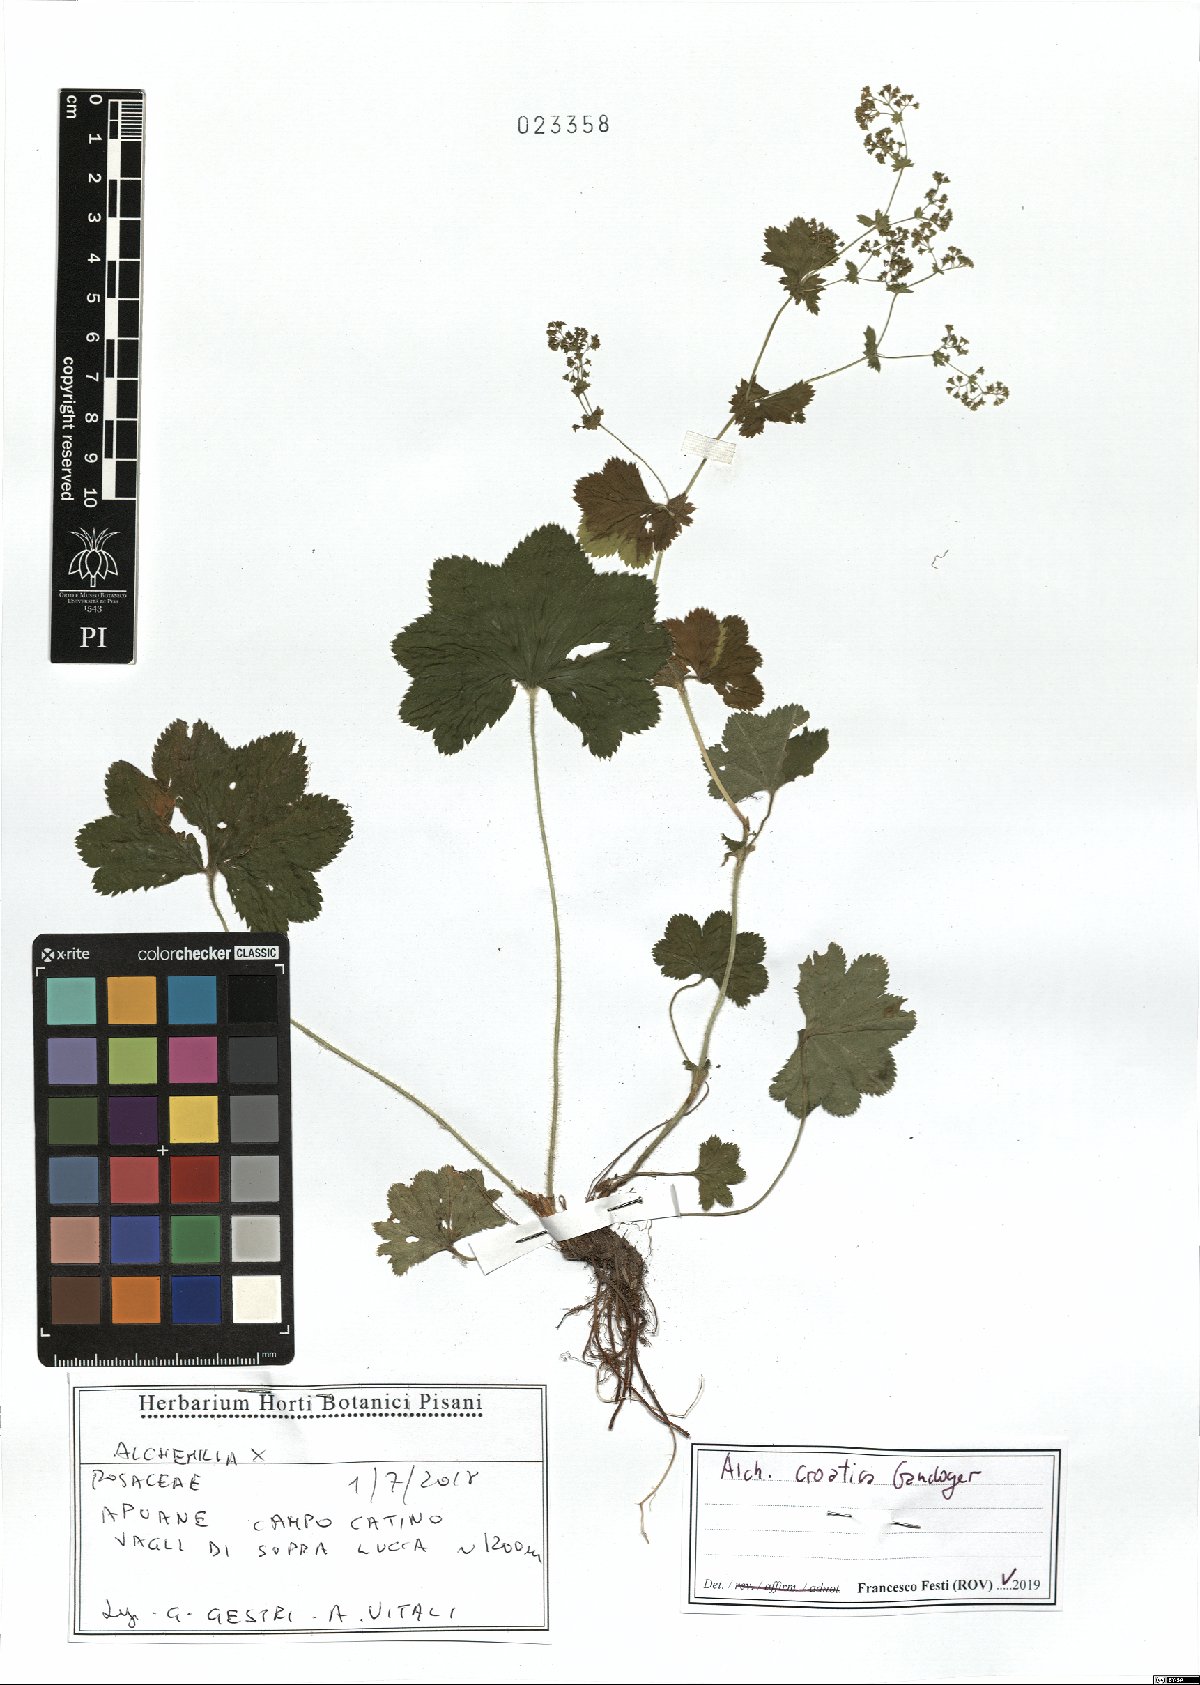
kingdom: Plantae
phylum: Tracheophyta
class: Magnoliopsida
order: Rosales
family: Rosaceae
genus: Alchemilla
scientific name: Alchemilla croatica
